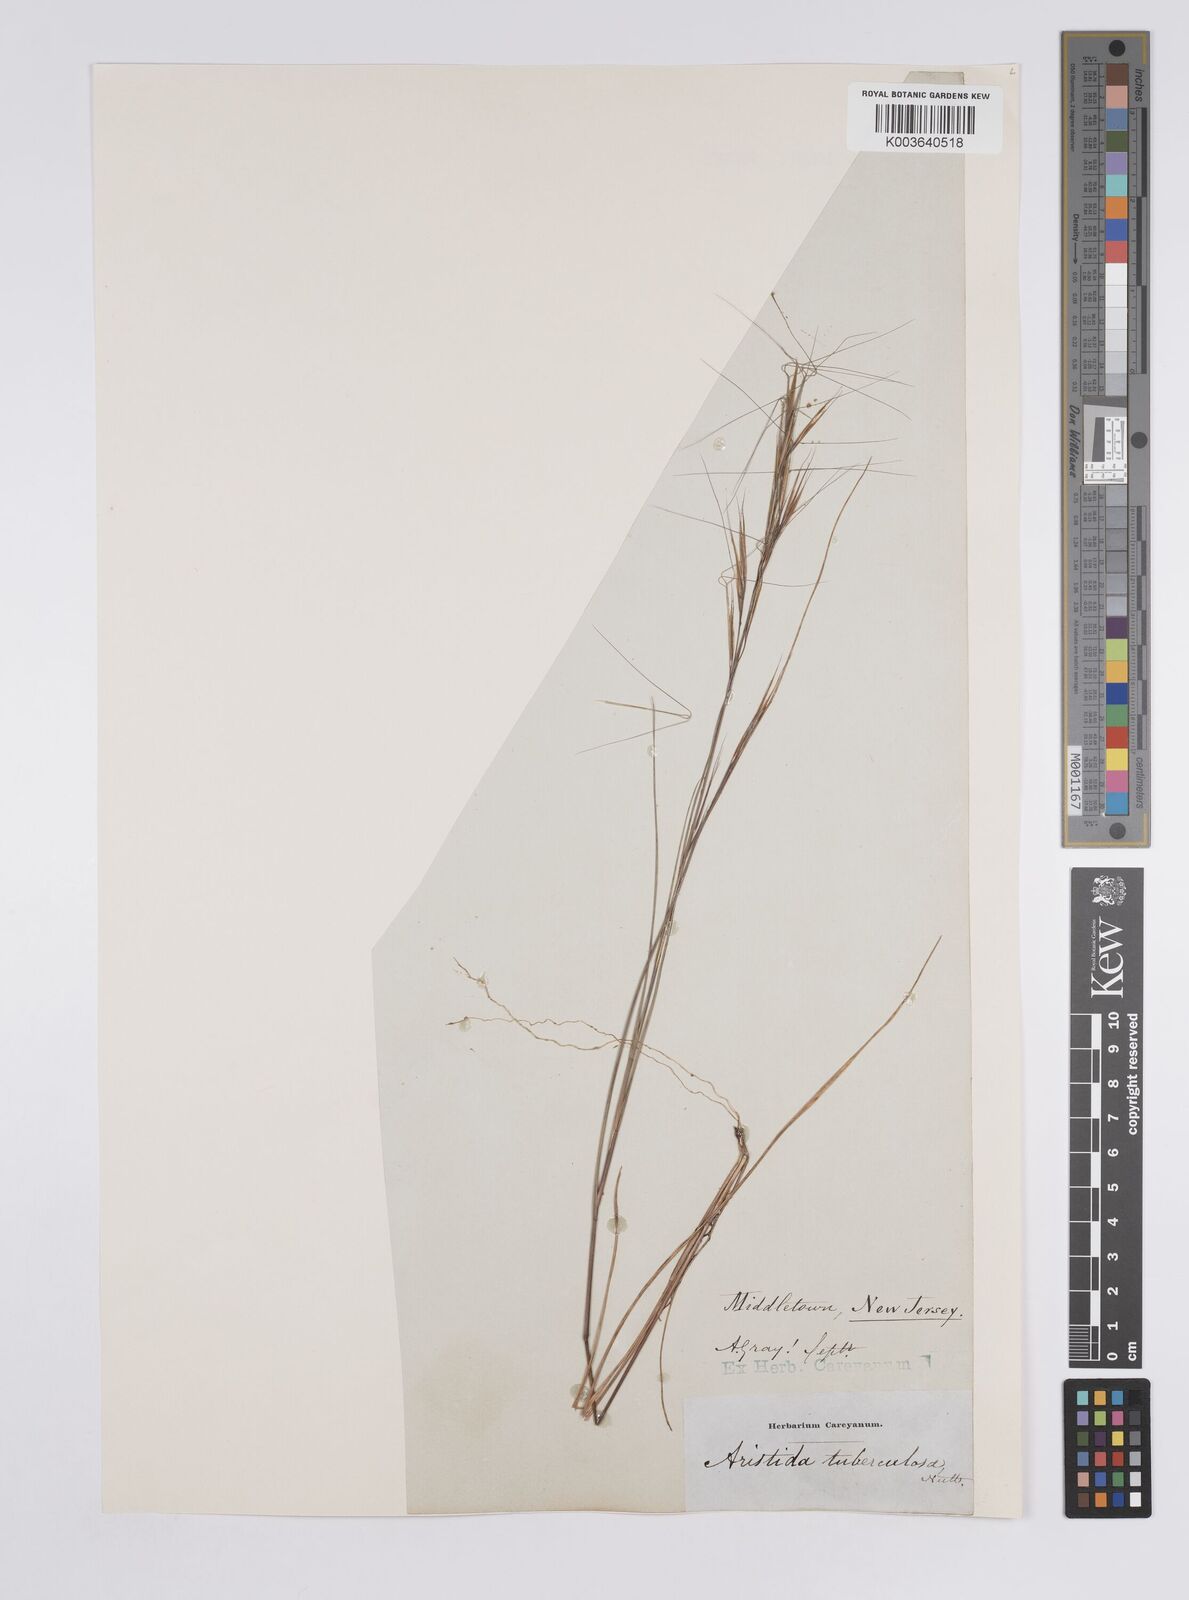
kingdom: Plantae
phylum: Tracheophyta
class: Liliopsida
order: Poales
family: Poaceae
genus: Aristida
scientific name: Aristida tuberculosa
